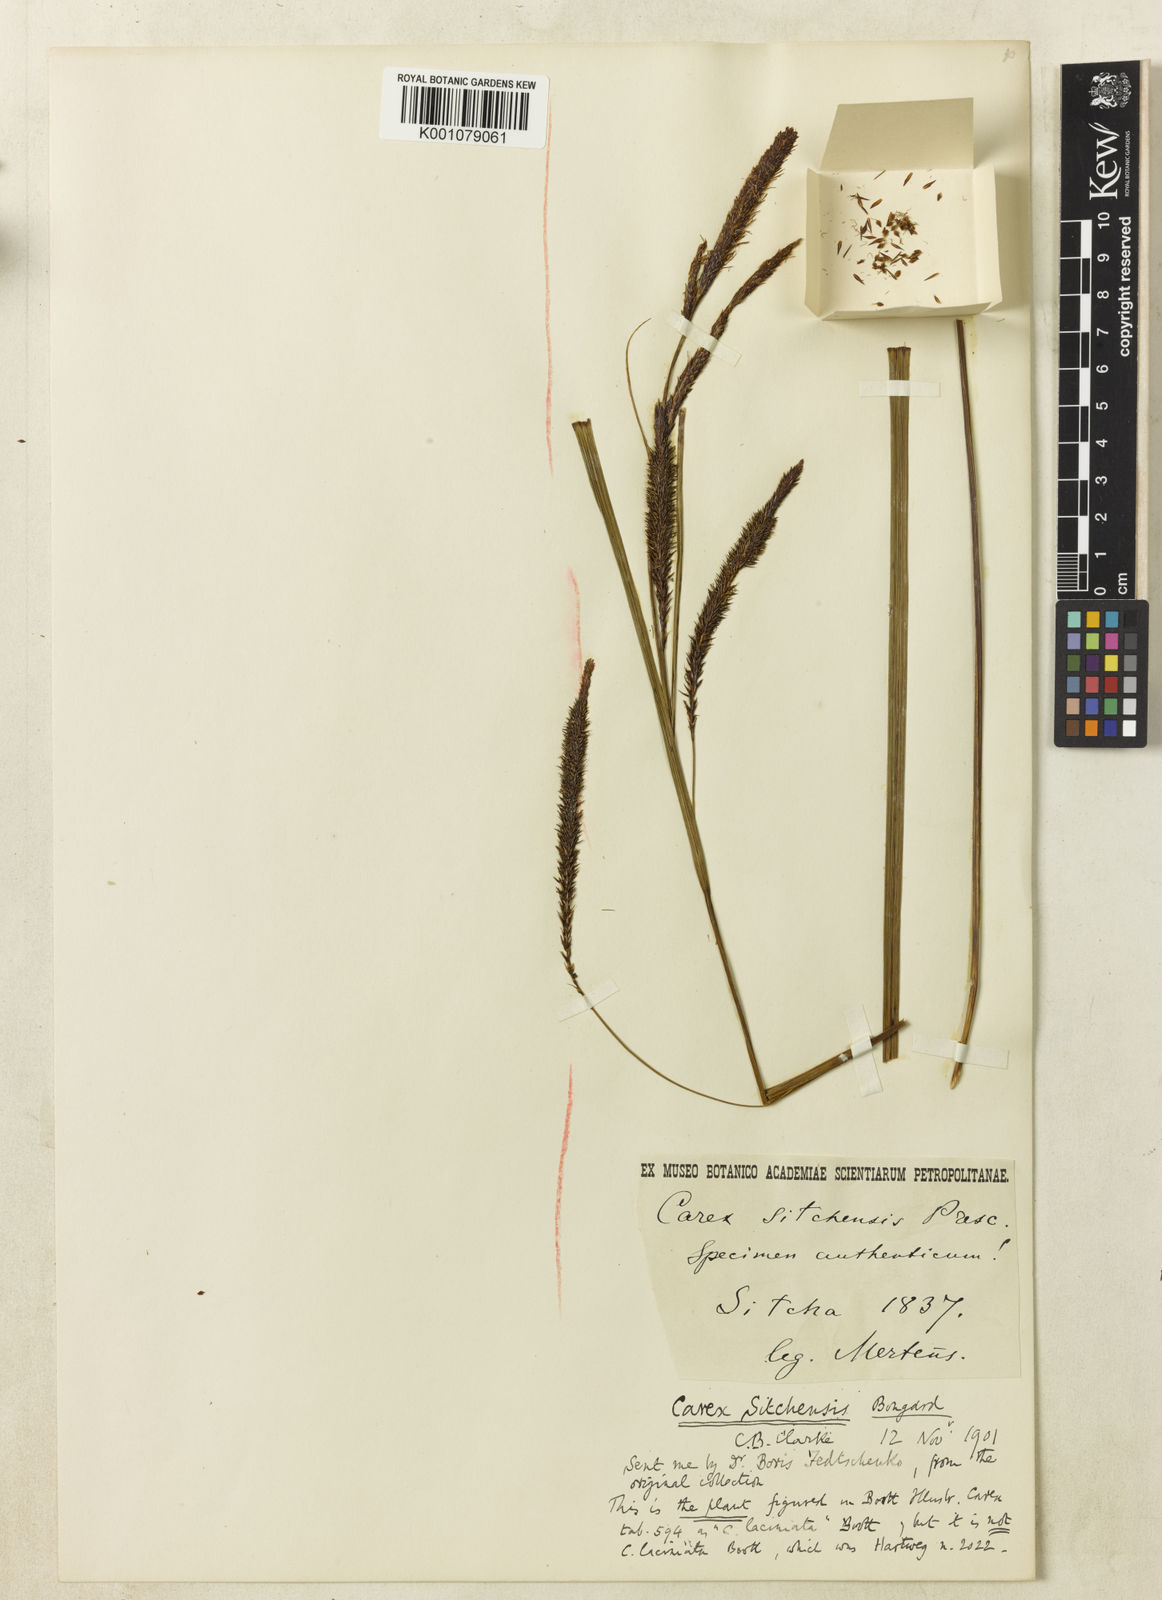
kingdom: Plantae
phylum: Tracheophyta
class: Liliopsida
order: Poales
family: Cyperaceae
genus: Carex
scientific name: Carex aquatilis
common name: Water sedge
